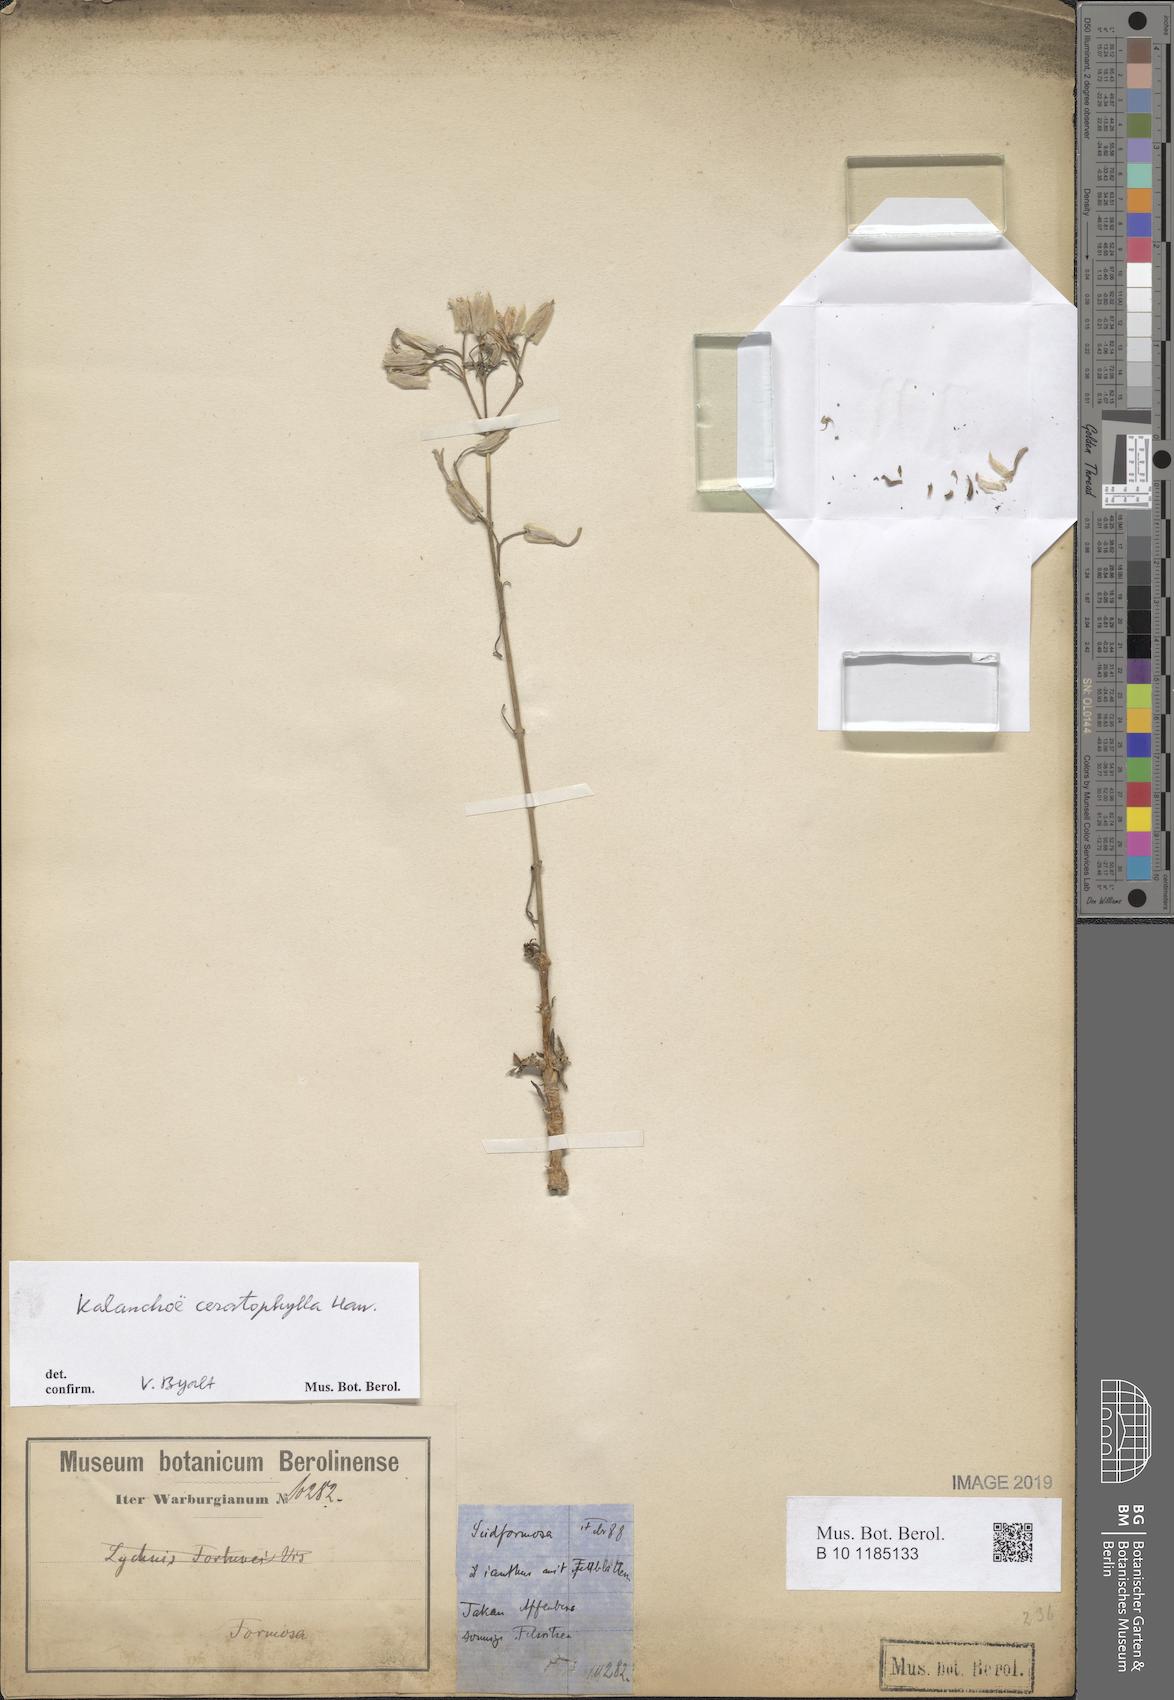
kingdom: Plantae
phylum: Tracheophyta
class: Magnoliopsida
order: Saxifragales
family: Crassulaceae
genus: Kalanchoe
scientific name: Kalanchoe ceratophylla
